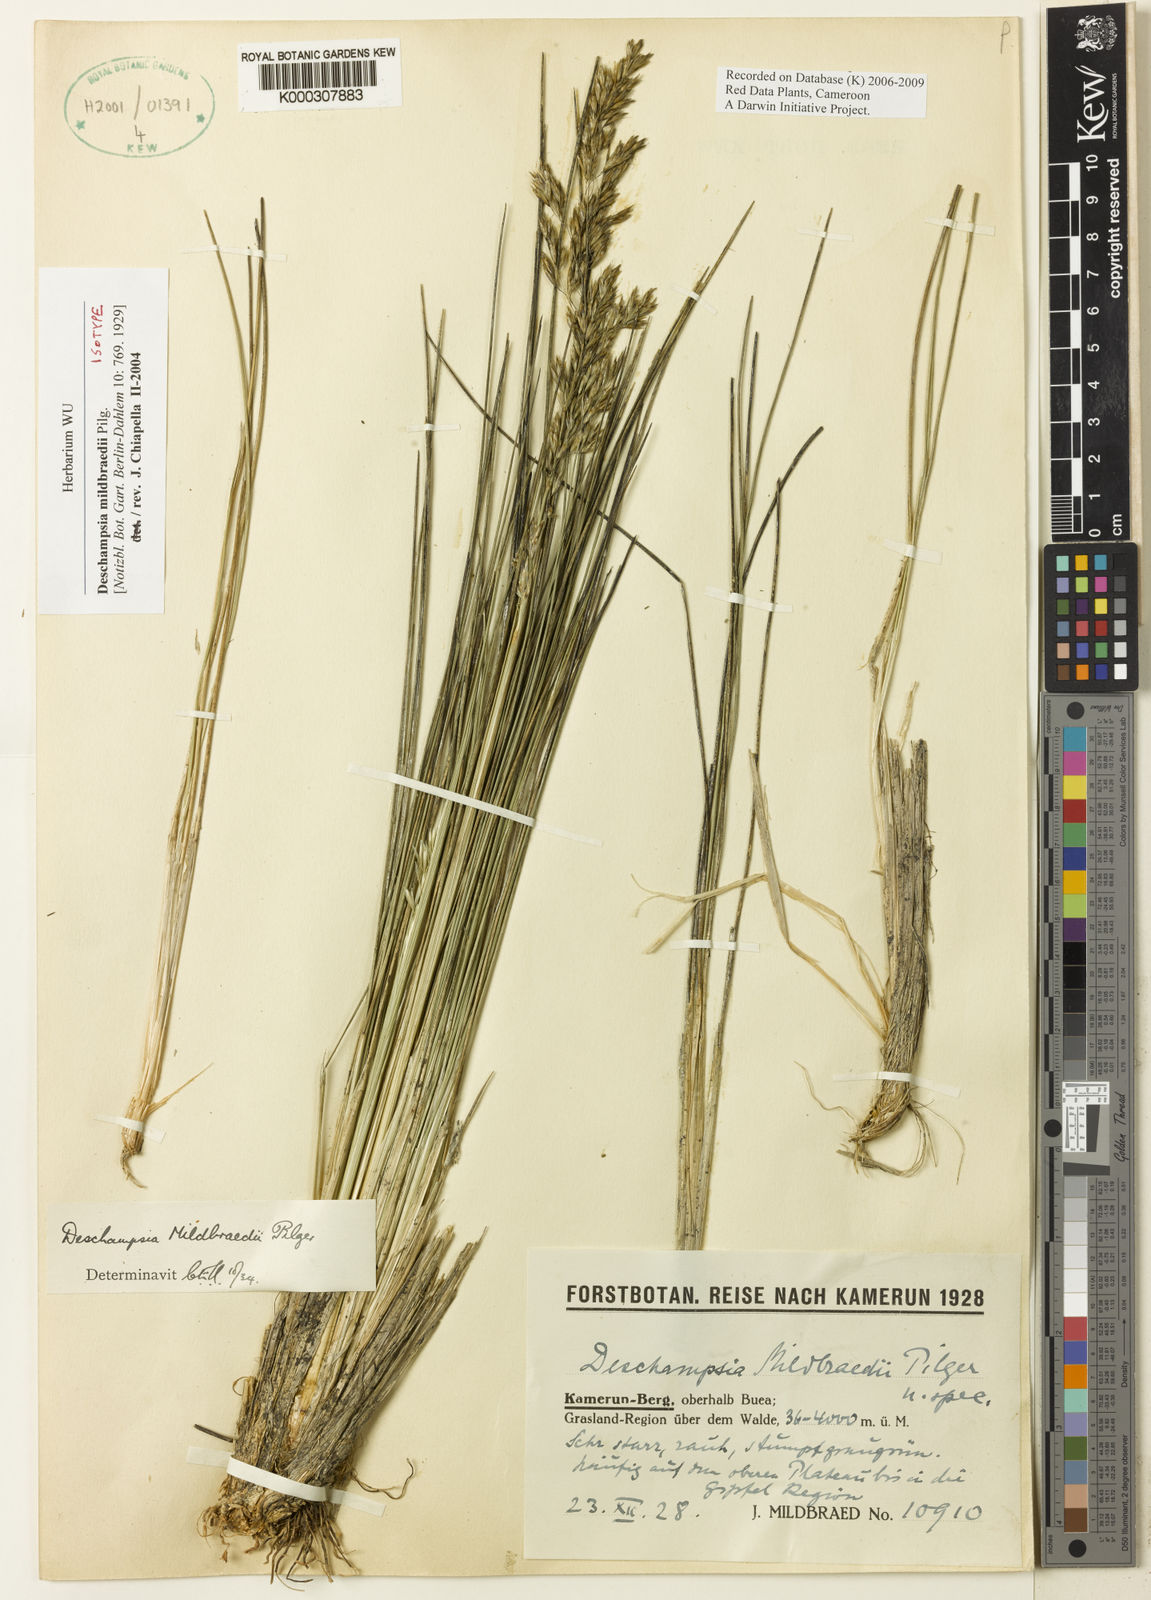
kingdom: Plantae
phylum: Tracheophyta
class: Liliopsida
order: Poales
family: Poaceae
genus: Deschampsia
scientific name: Deschampsia
